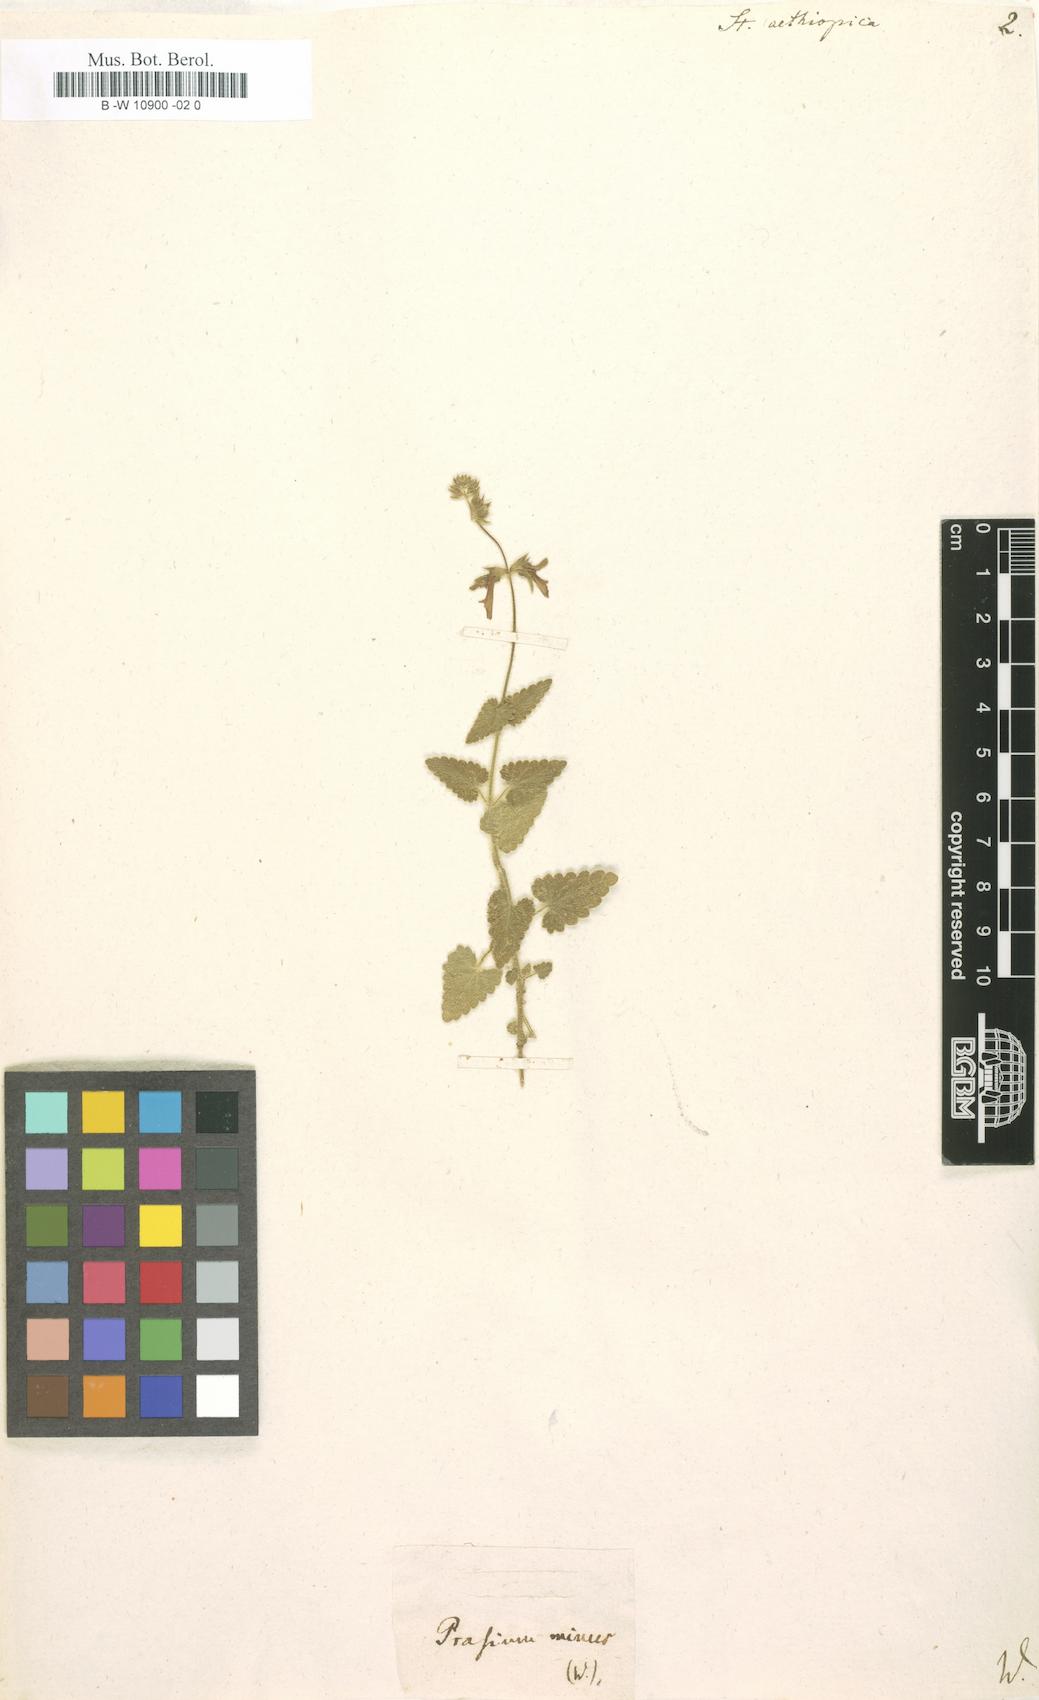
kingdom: Plantae
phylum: Tracheophyta
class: Magnoliopsida
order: Lamiales
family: Lamiaceae
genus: Stachys
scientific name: Stachys aethiopica
